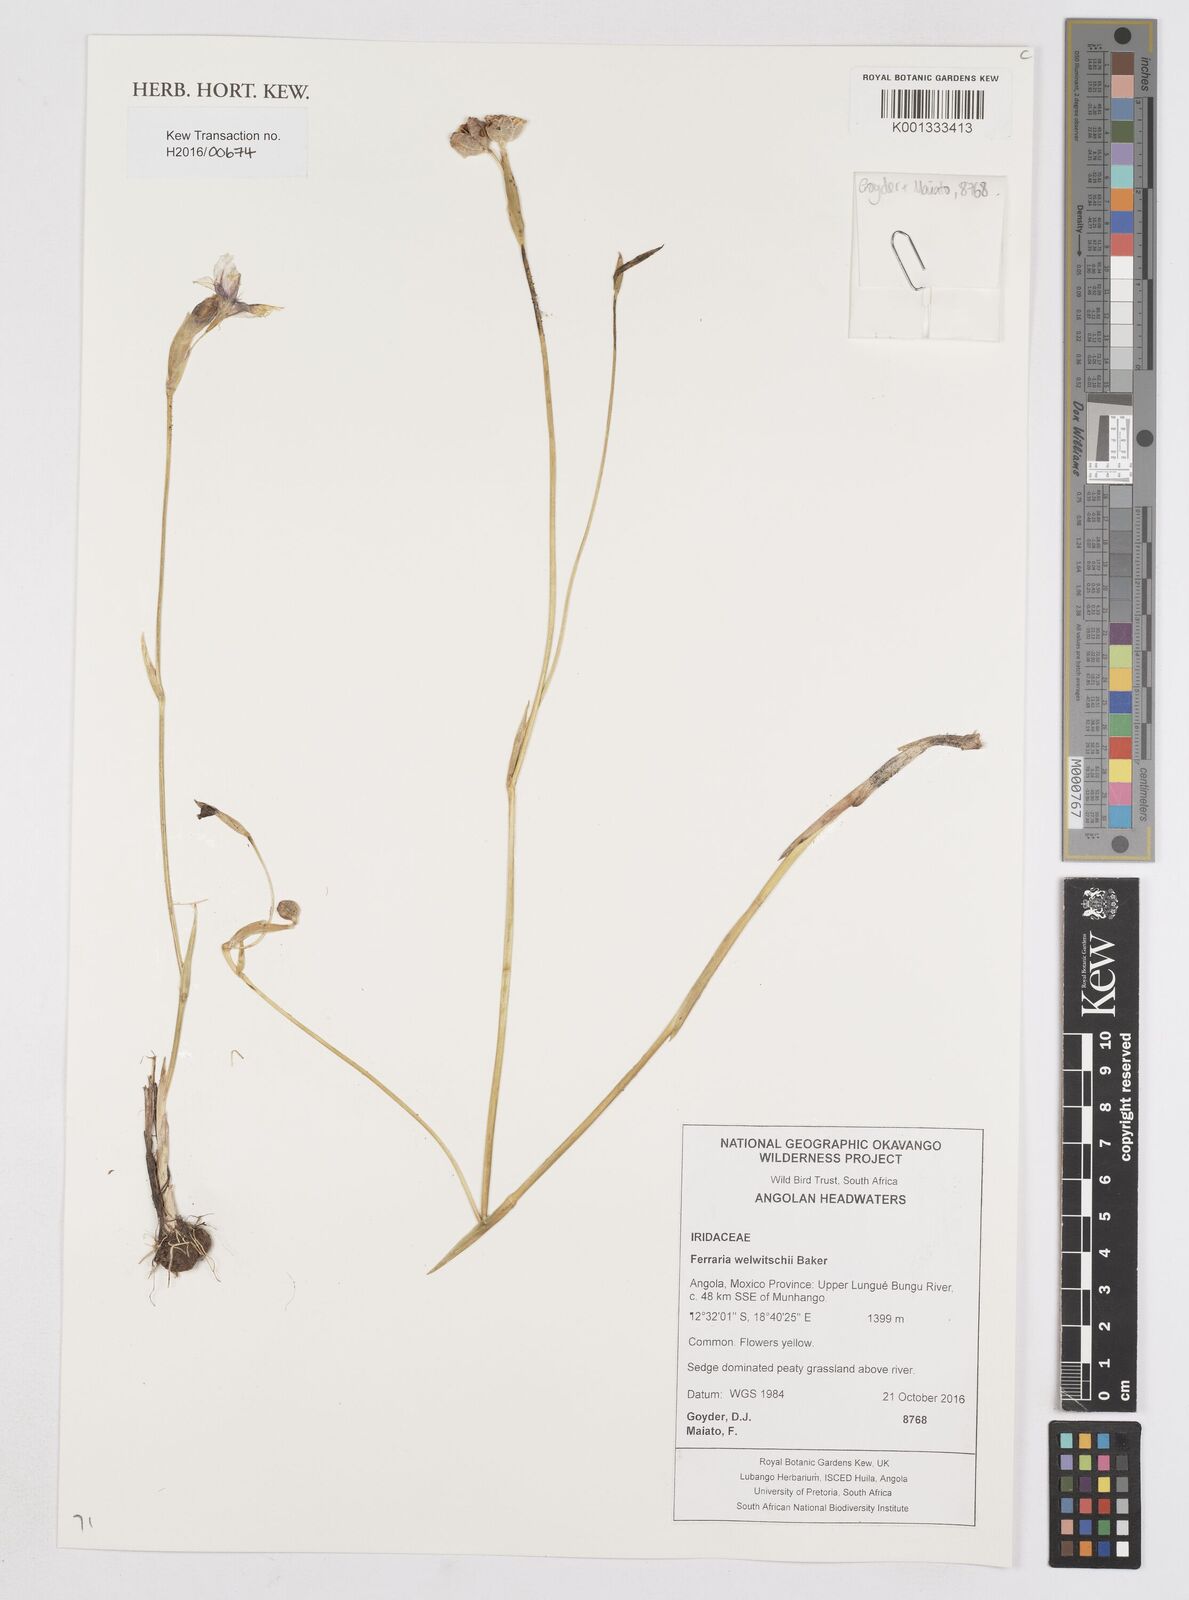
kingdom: Plantae
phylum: Tracheophyta
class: Liliopsida
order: Asparagales
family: Iridaceae
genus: Ferraria
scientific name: Ferraria welwitschii
